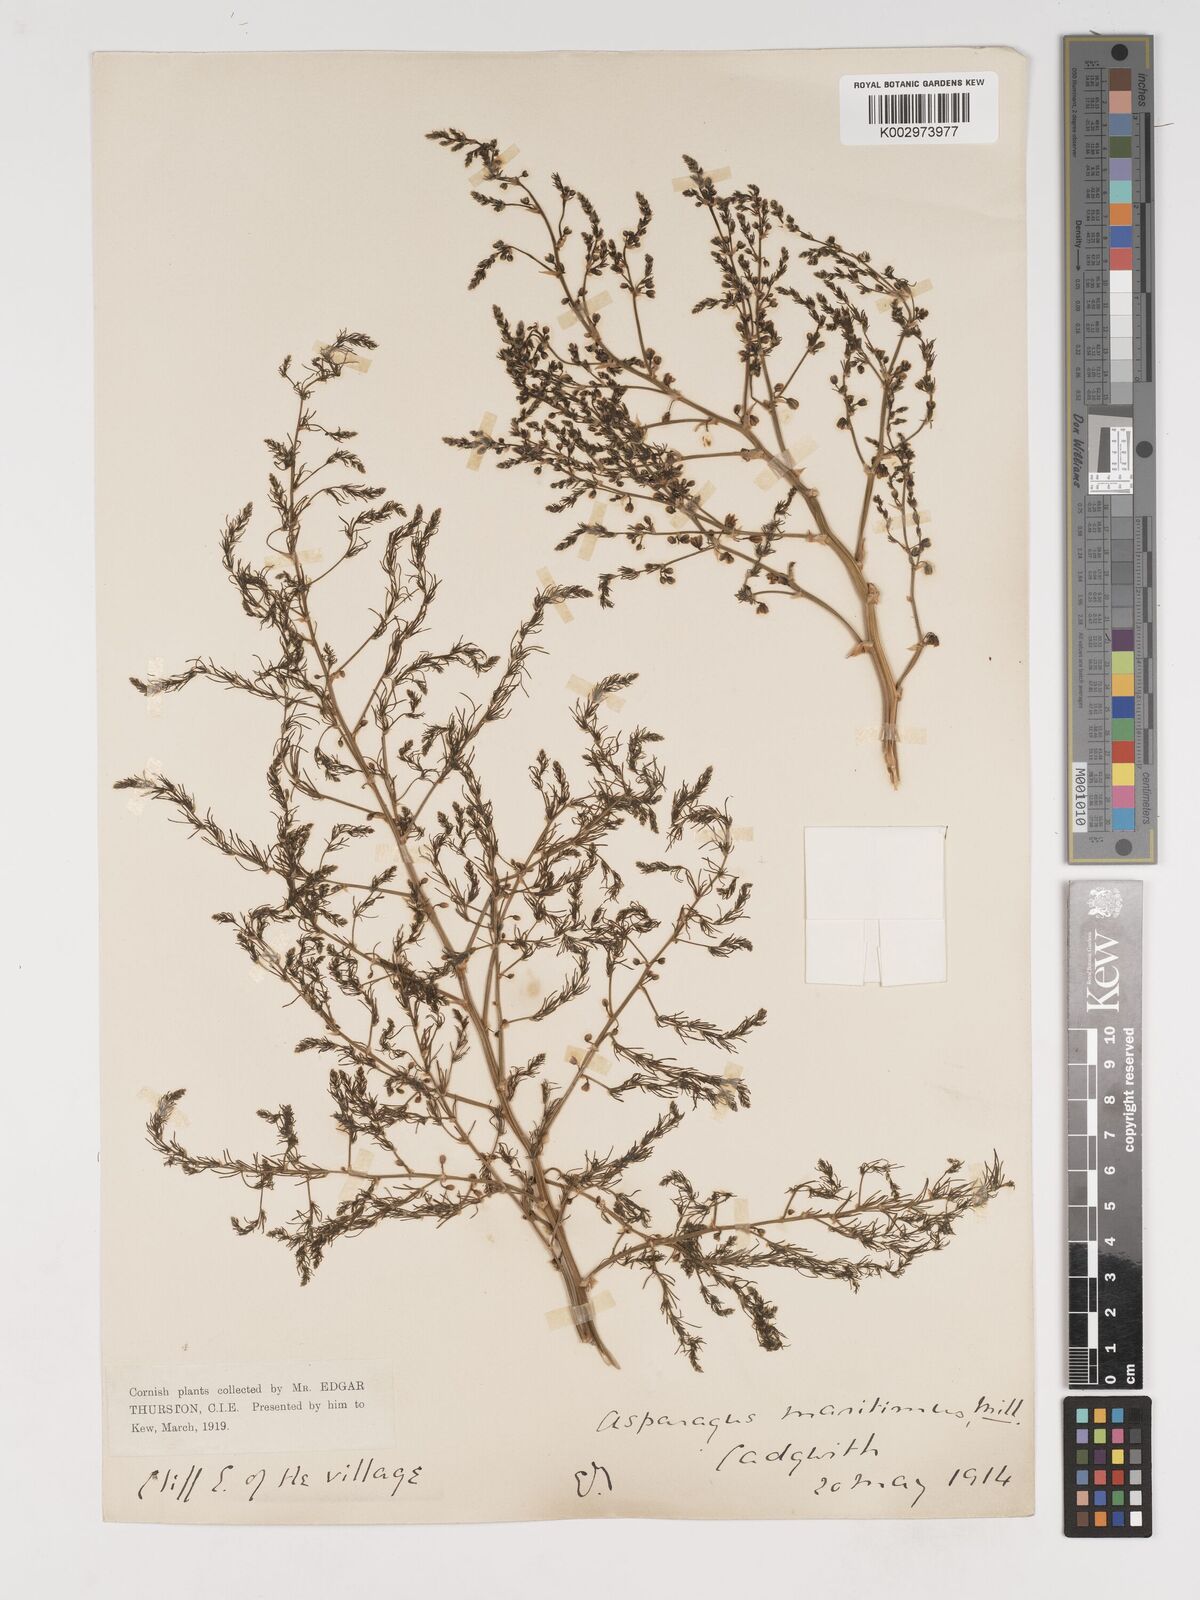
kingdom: Plantae
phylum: Tracheophyta
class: Liliopsida
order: Asparagales
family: Asparagaceae
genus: Asparagus
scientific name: Asparagus maritimus
